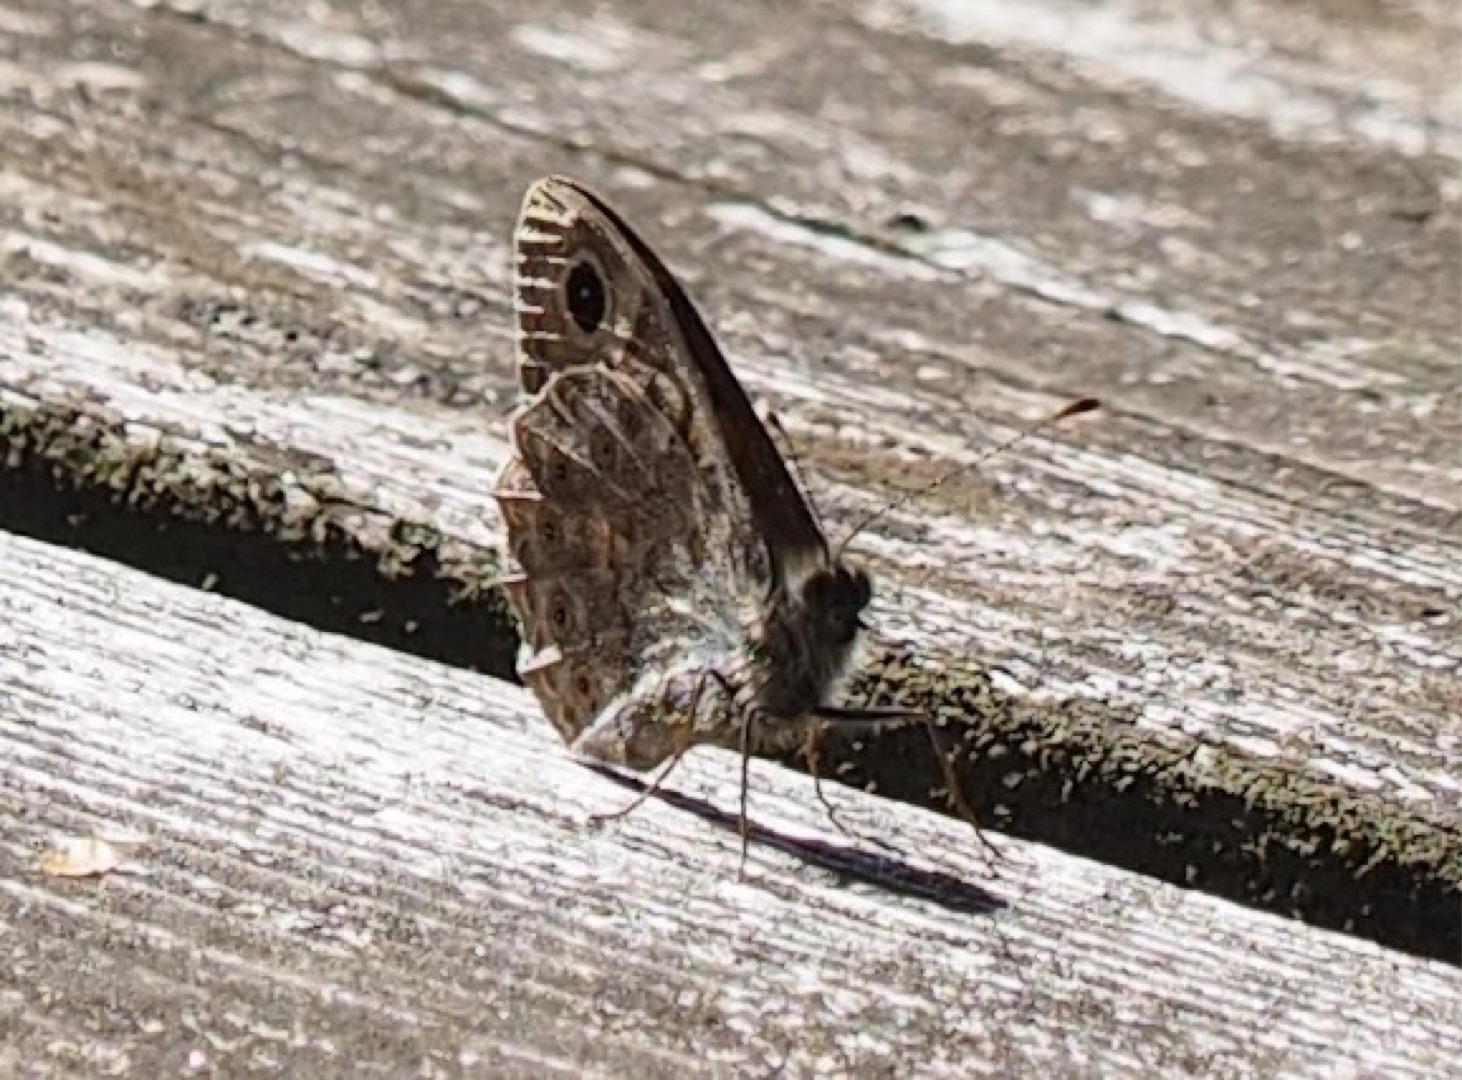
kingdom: Animalia
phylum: Arthropoda
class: Insecta
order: Lepidoptera
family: Nymphalidae
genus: Pararge
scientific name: Pararge Lasiommata megera
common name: Vejrandøje
